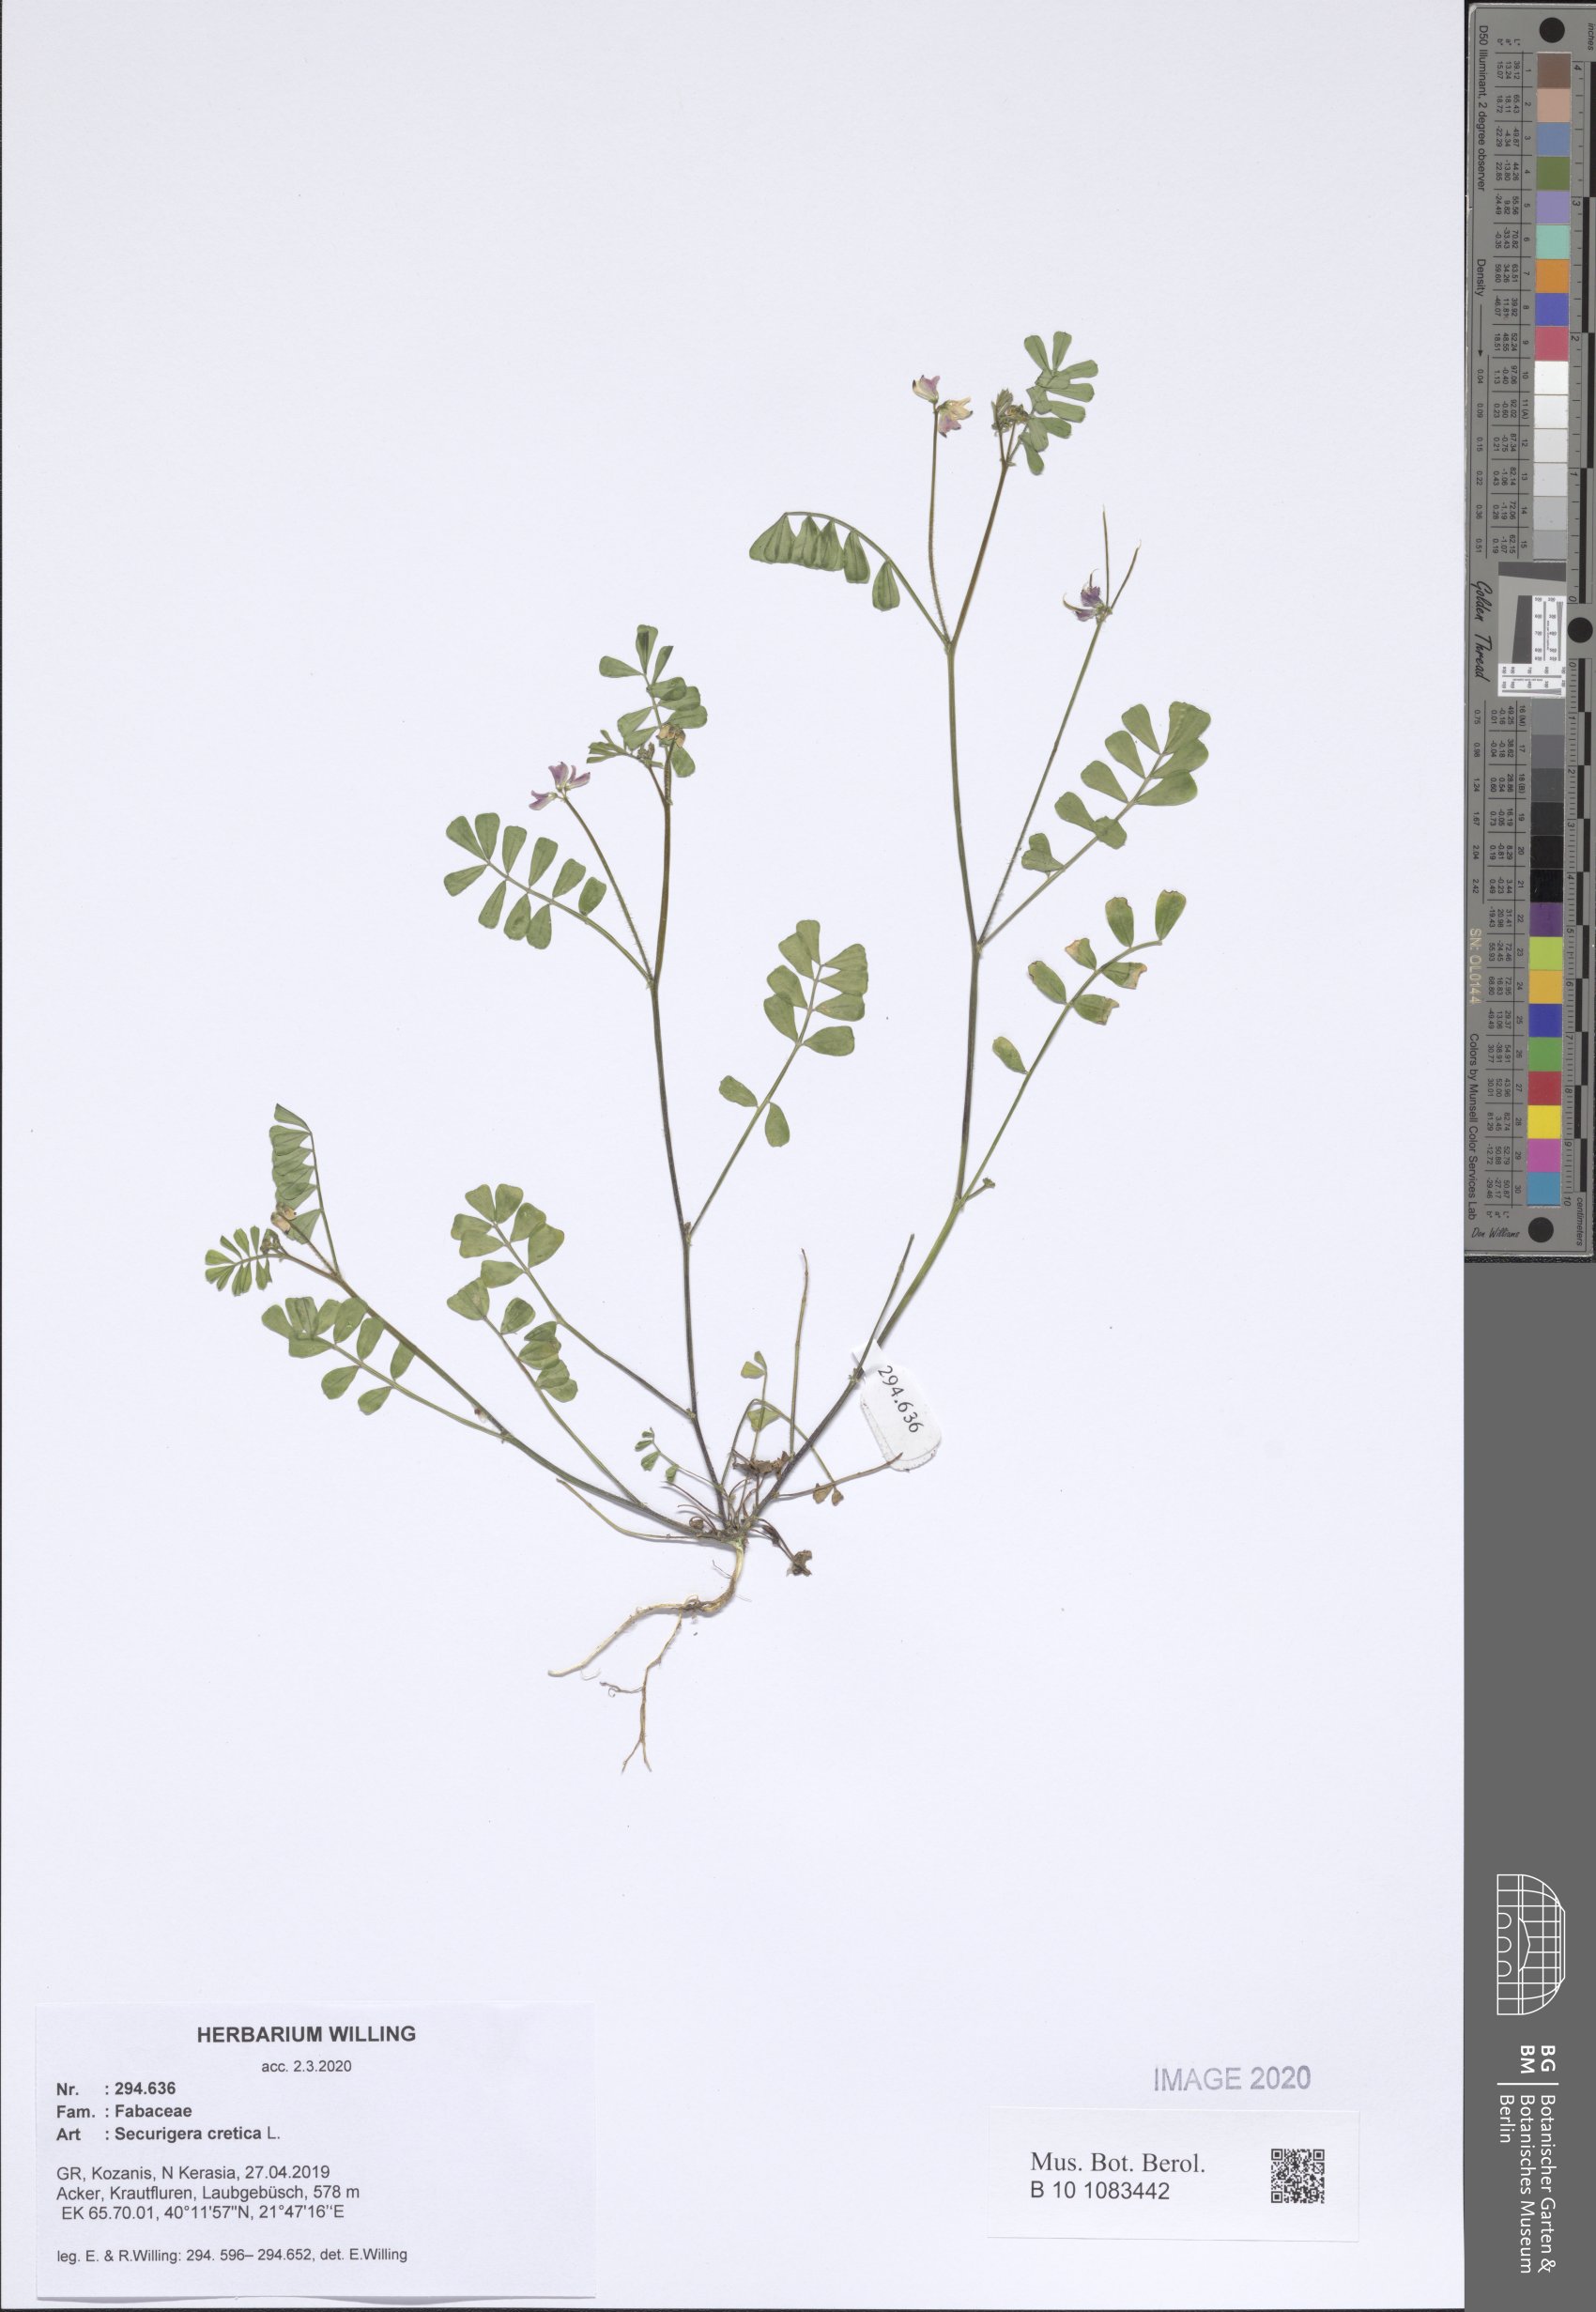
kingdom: Plantae
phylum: Tracheophyta
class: Magnoliopsida
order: Fabales
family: Fabaceae
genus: Coronilla
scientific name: Coronilla cretica
